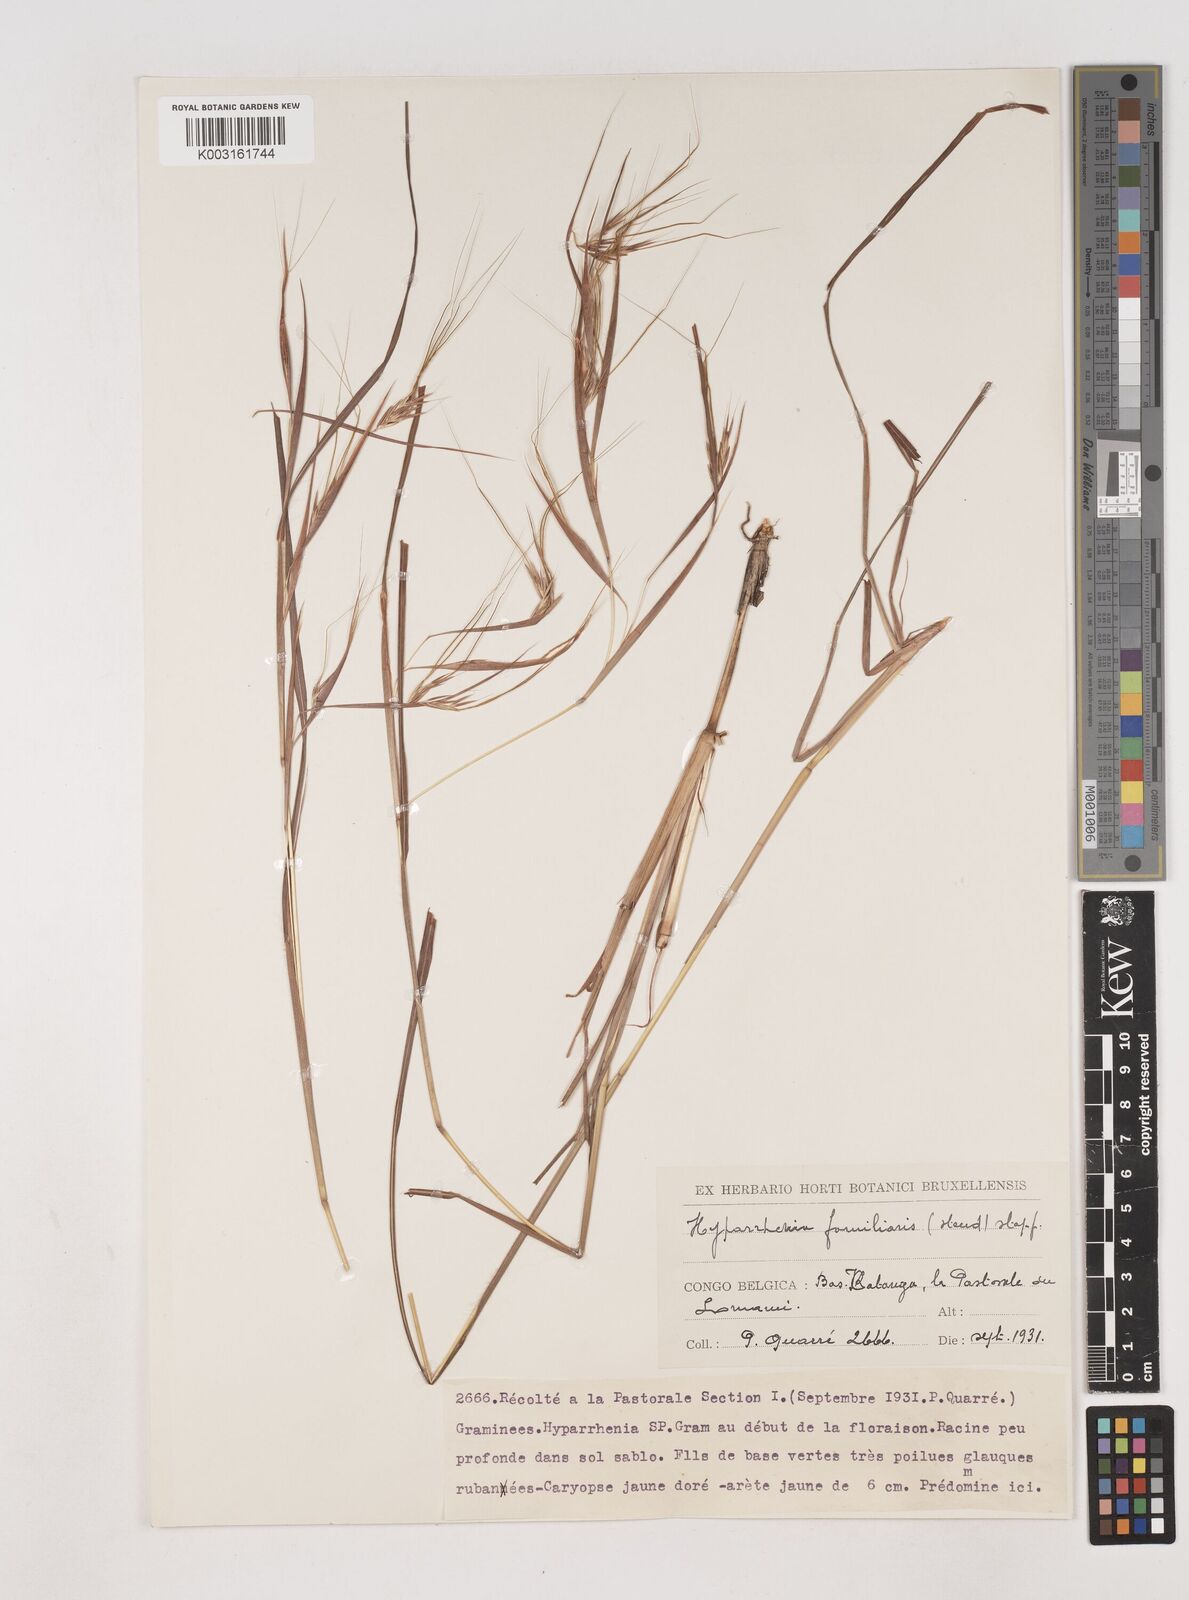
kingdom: Plantae
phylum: Tracheophyta
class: Liliopsida
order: Poales
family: Poaceae
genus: Hyparrhenia
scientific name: Hyparrhenia familiaris
